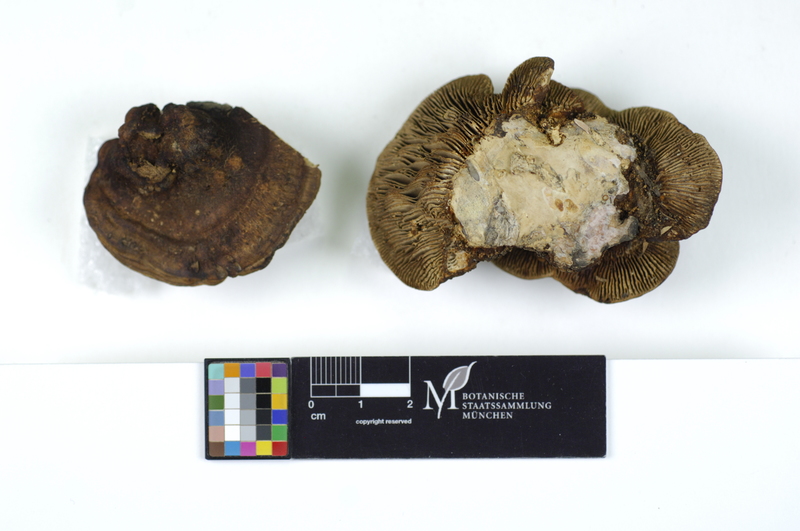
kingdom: Plantae
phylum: Tracheophyta
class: Magnoliopsida
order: Fagales
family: Betulaceae
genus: Betula
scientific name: Betula
